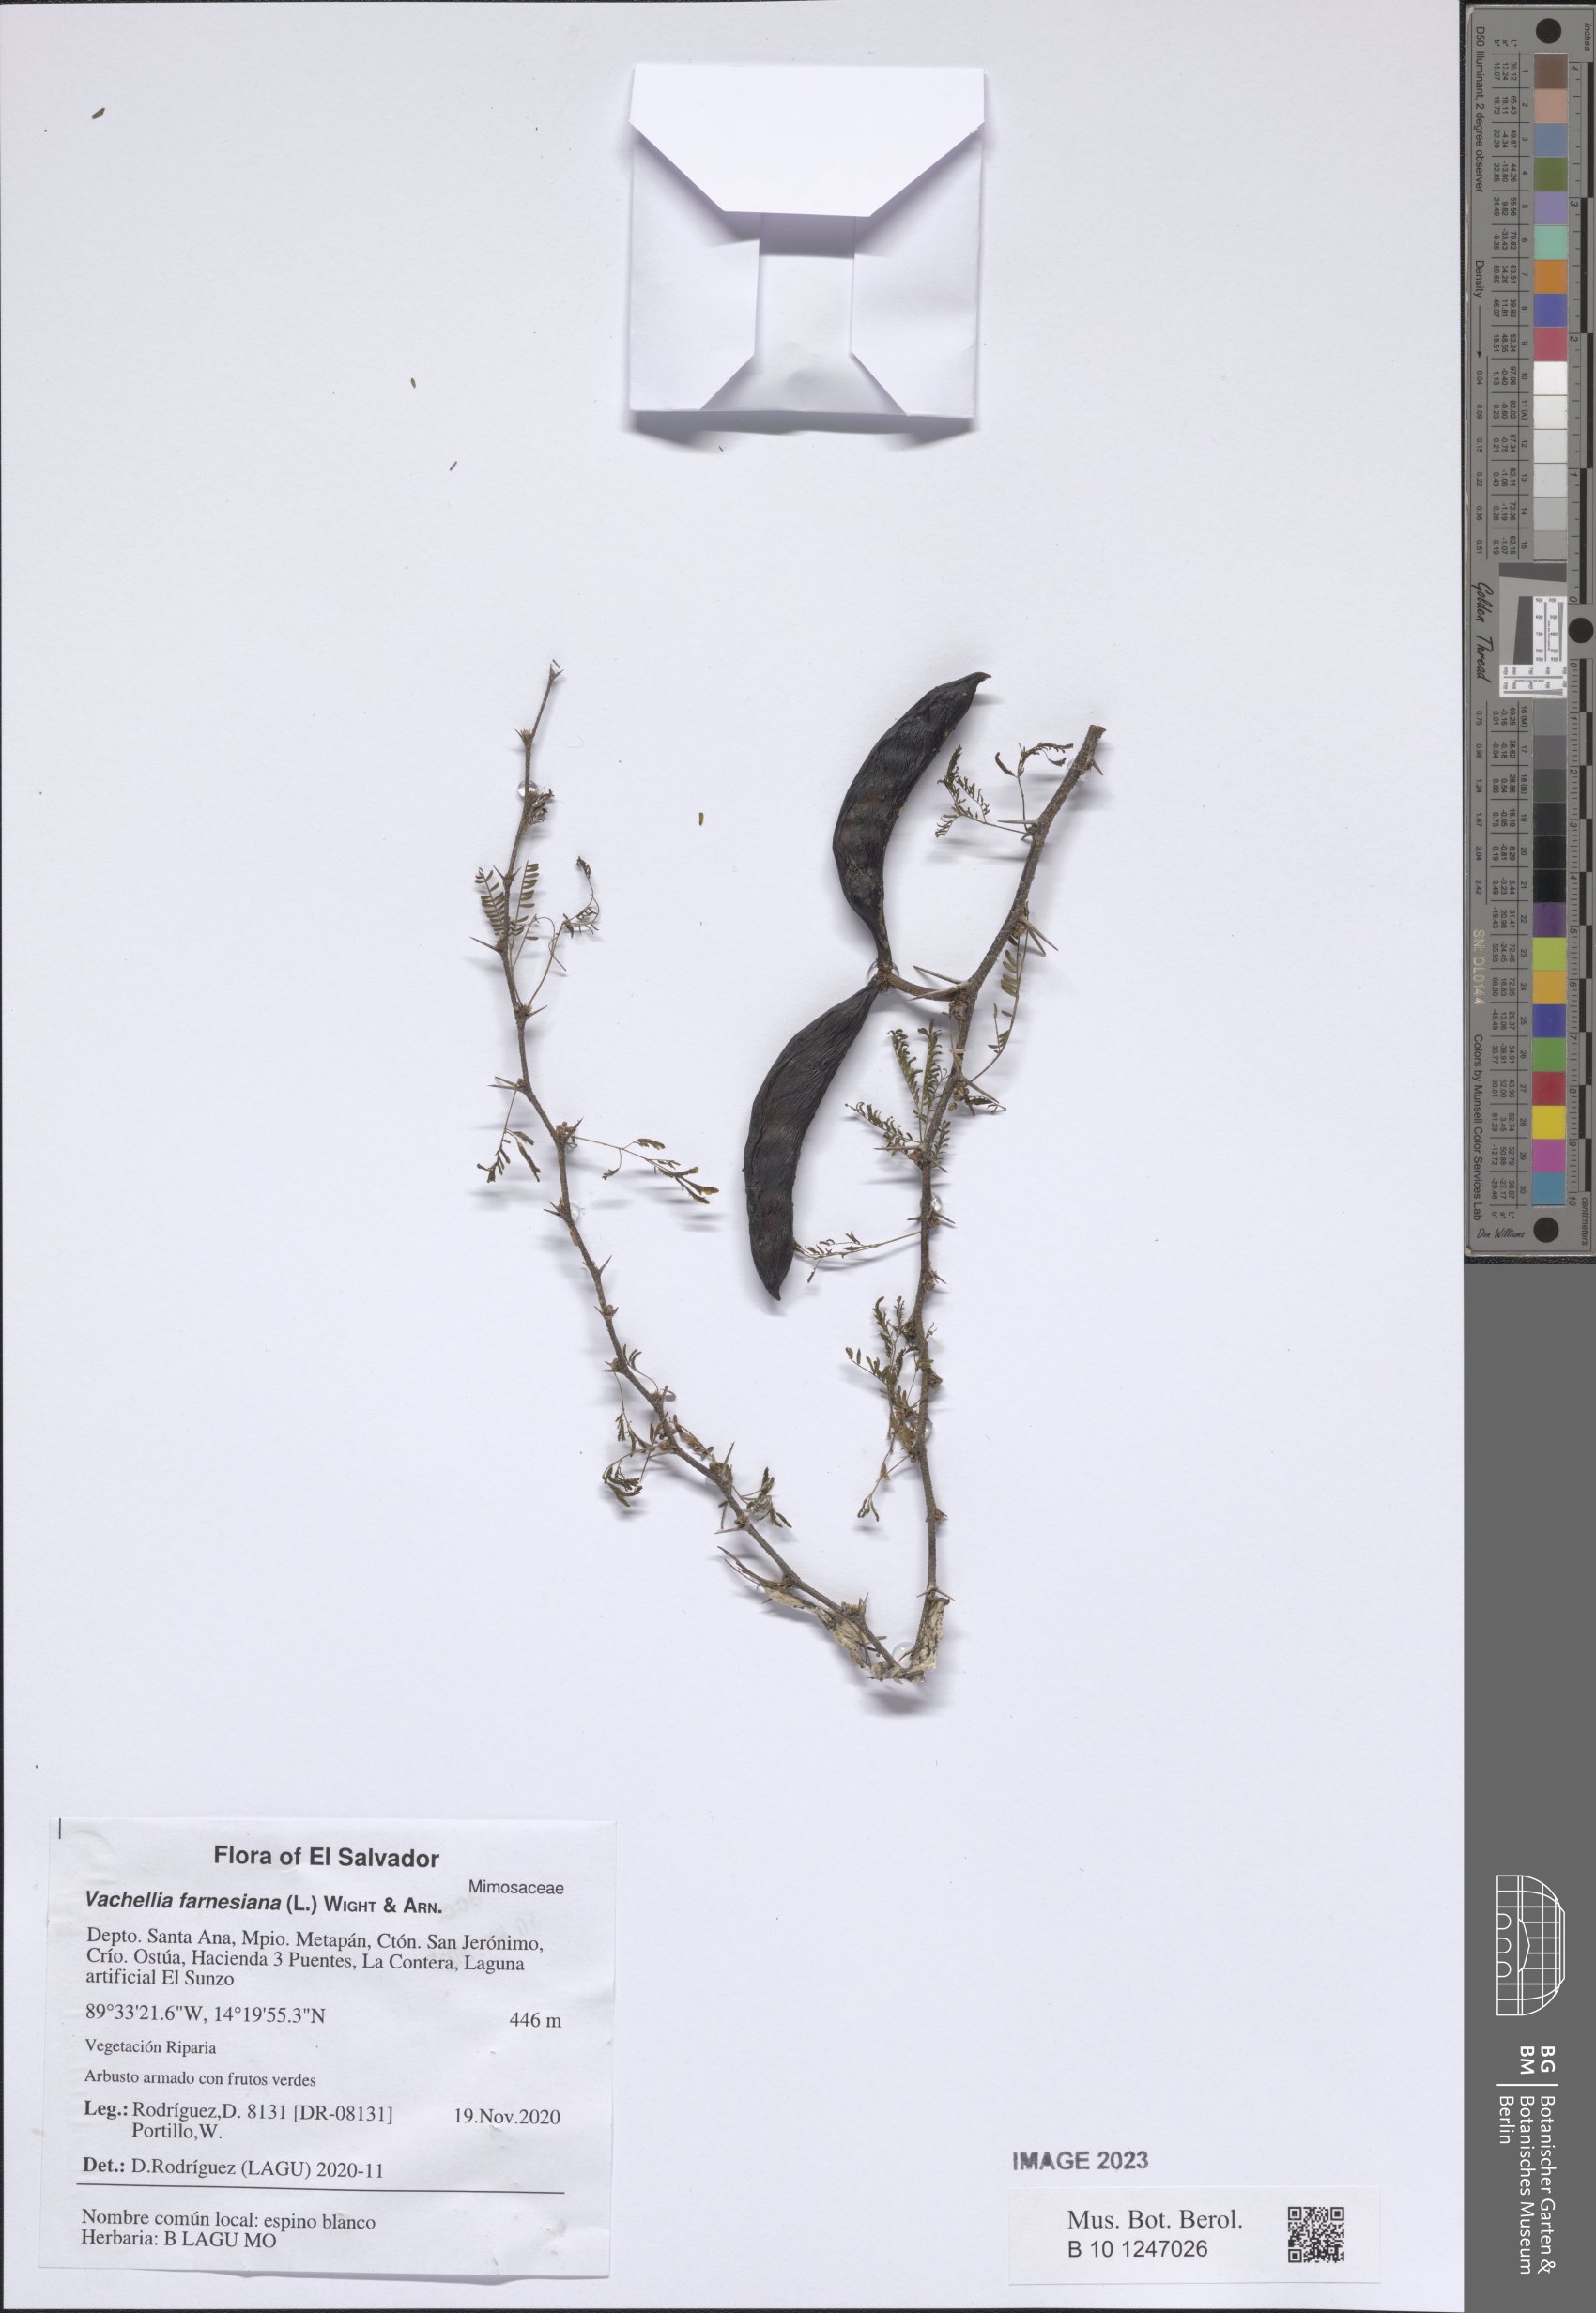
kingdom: Plantae
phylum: Tracheophyta
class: Magnoliopsida
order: Fabales
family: Fabaceae
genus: Vachellia
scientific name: Vachellia farnesiana
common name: Sweet acacia
